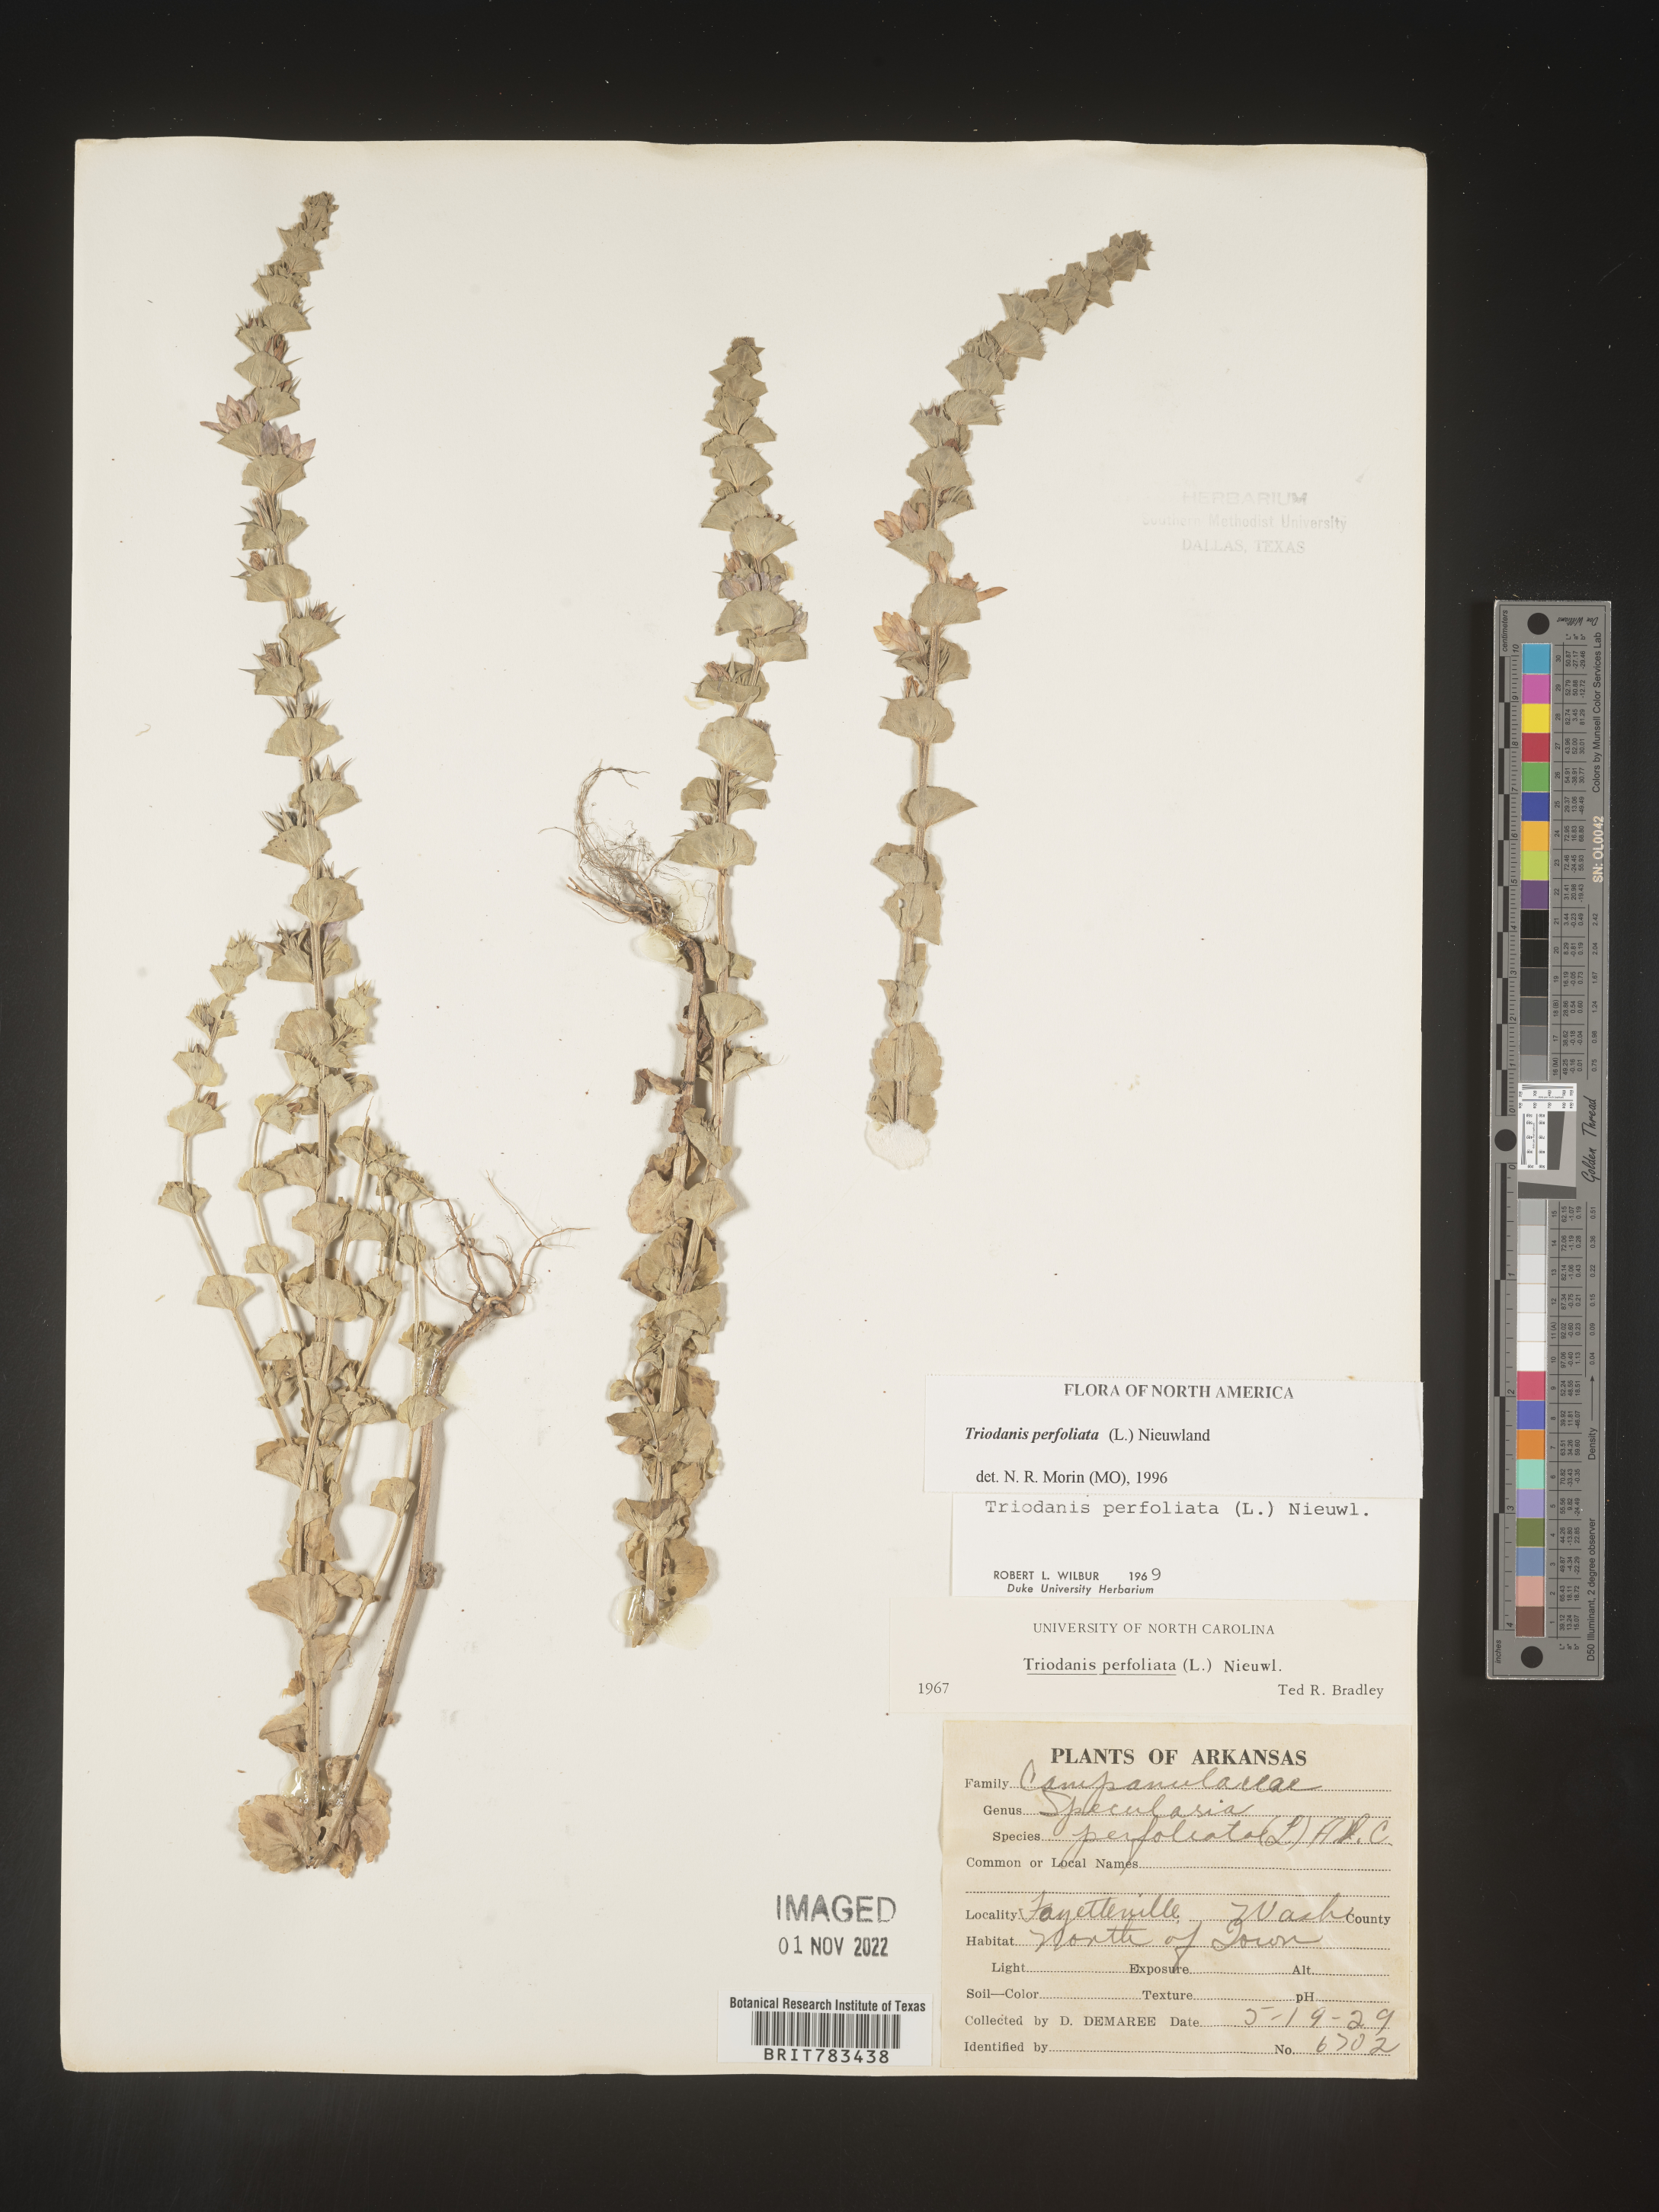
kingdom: Plantae
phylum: Tracheophyta
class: Magnoliopsida
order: Asterales
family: Campanulaceae
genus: Triodanis
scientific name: Triodanis perfoliata
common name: Clasping venus' looking-glass
